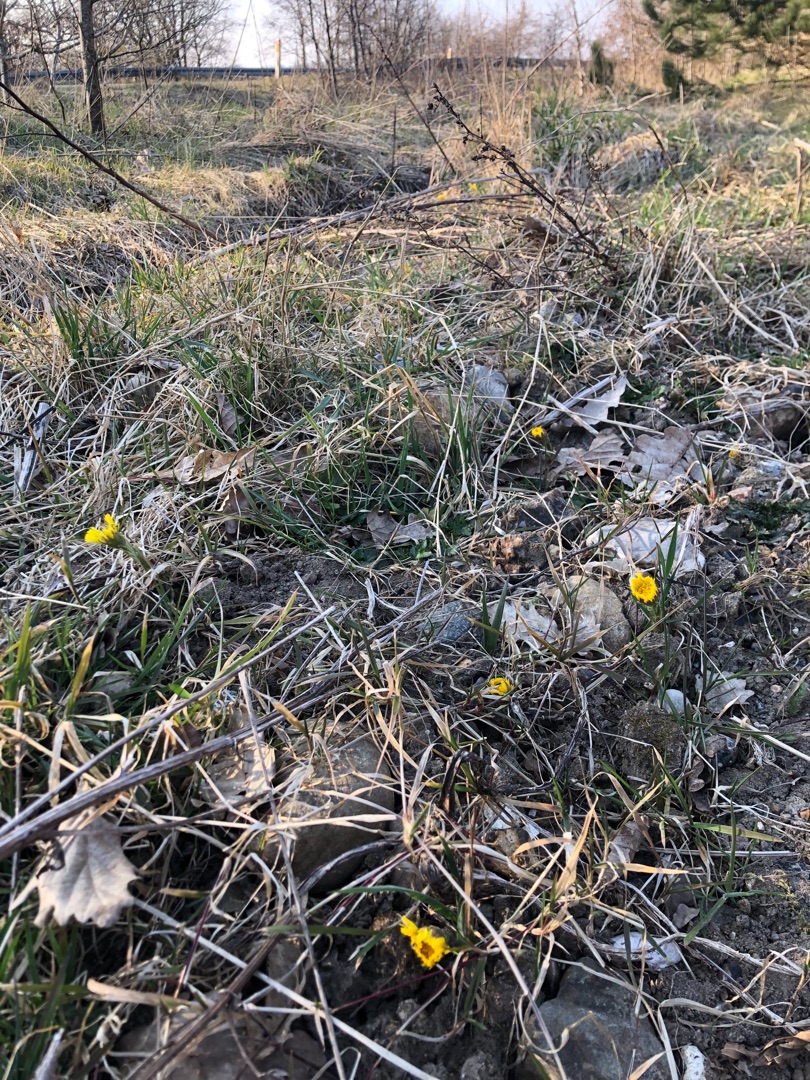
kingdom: Plantae
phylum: Tracheophyta
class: Magnoliopsida
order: Asterales
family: Asteraceae
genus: Tussilago
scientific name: Tussilago farfara
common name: Følfod
